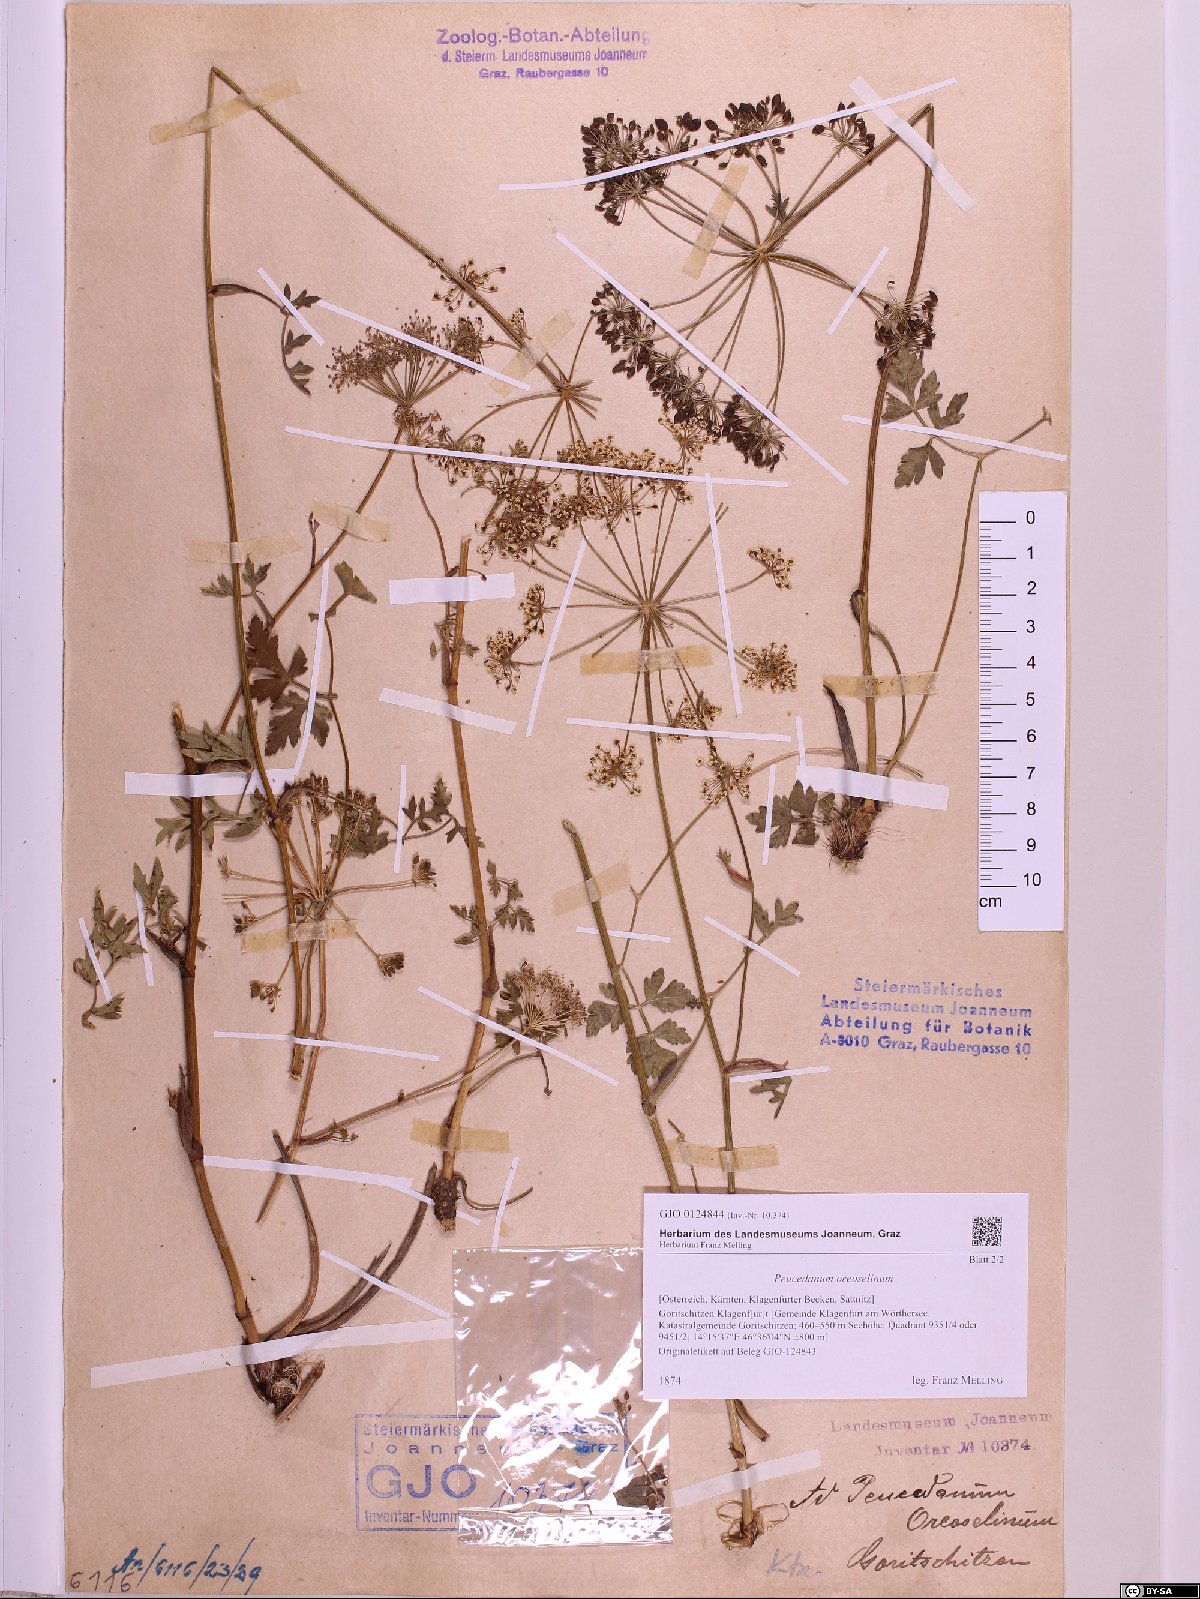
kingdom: Plantae
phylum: Tracheophyta
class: Magnoliopsida
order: Apiales
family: Apiaceae
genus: Oreoselinum
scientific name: Oreoselinum nigrum
